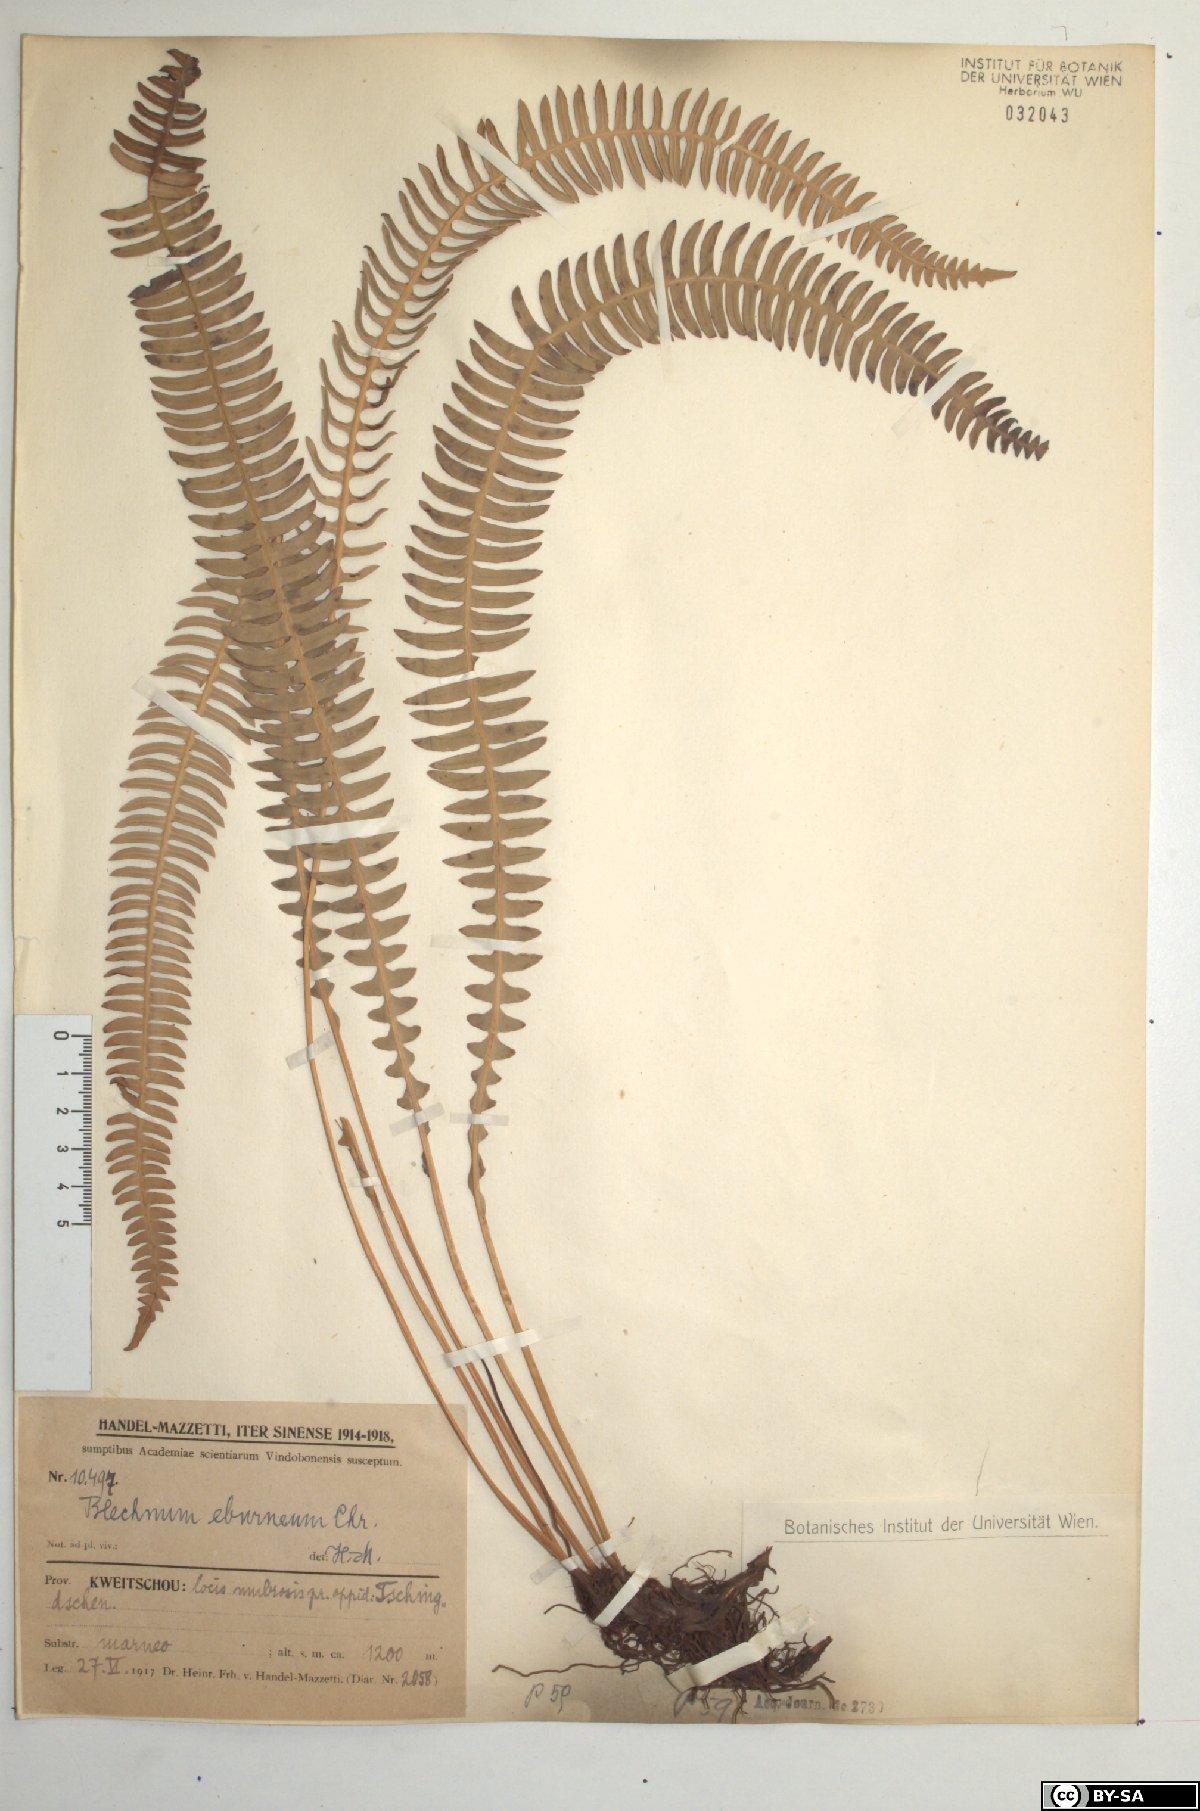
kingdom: Plantae
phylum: Tracheophyta
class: Polypodiopsida
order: Polypodiales
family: Blechnaceae
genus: Cleistoblechnum
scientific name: Cleistoblechnum eburneum
